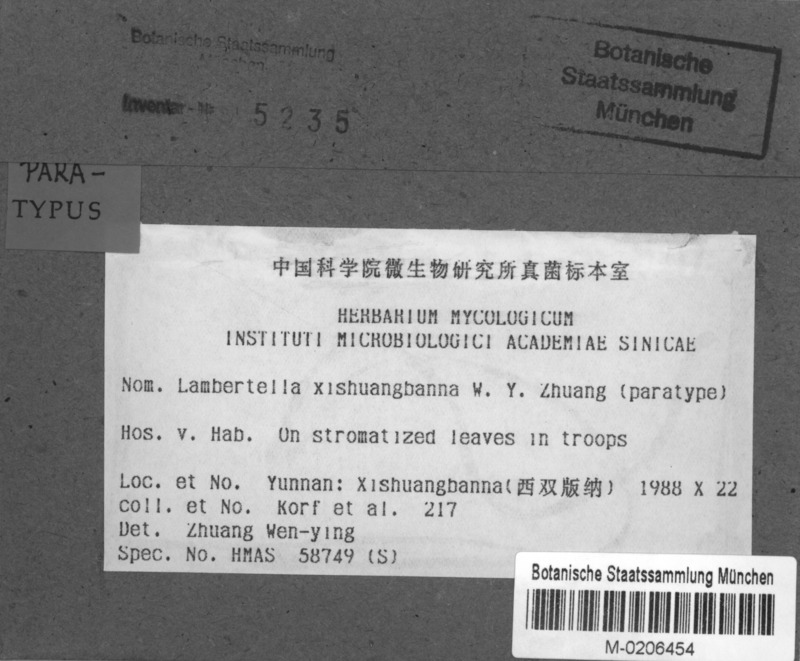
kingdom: Fungi
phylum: Ascomycota
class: Leotiomycetes
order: Helotiales
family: Rutstroemiaceae
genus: Lambertella
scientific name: Lambertella xishuangbanna
